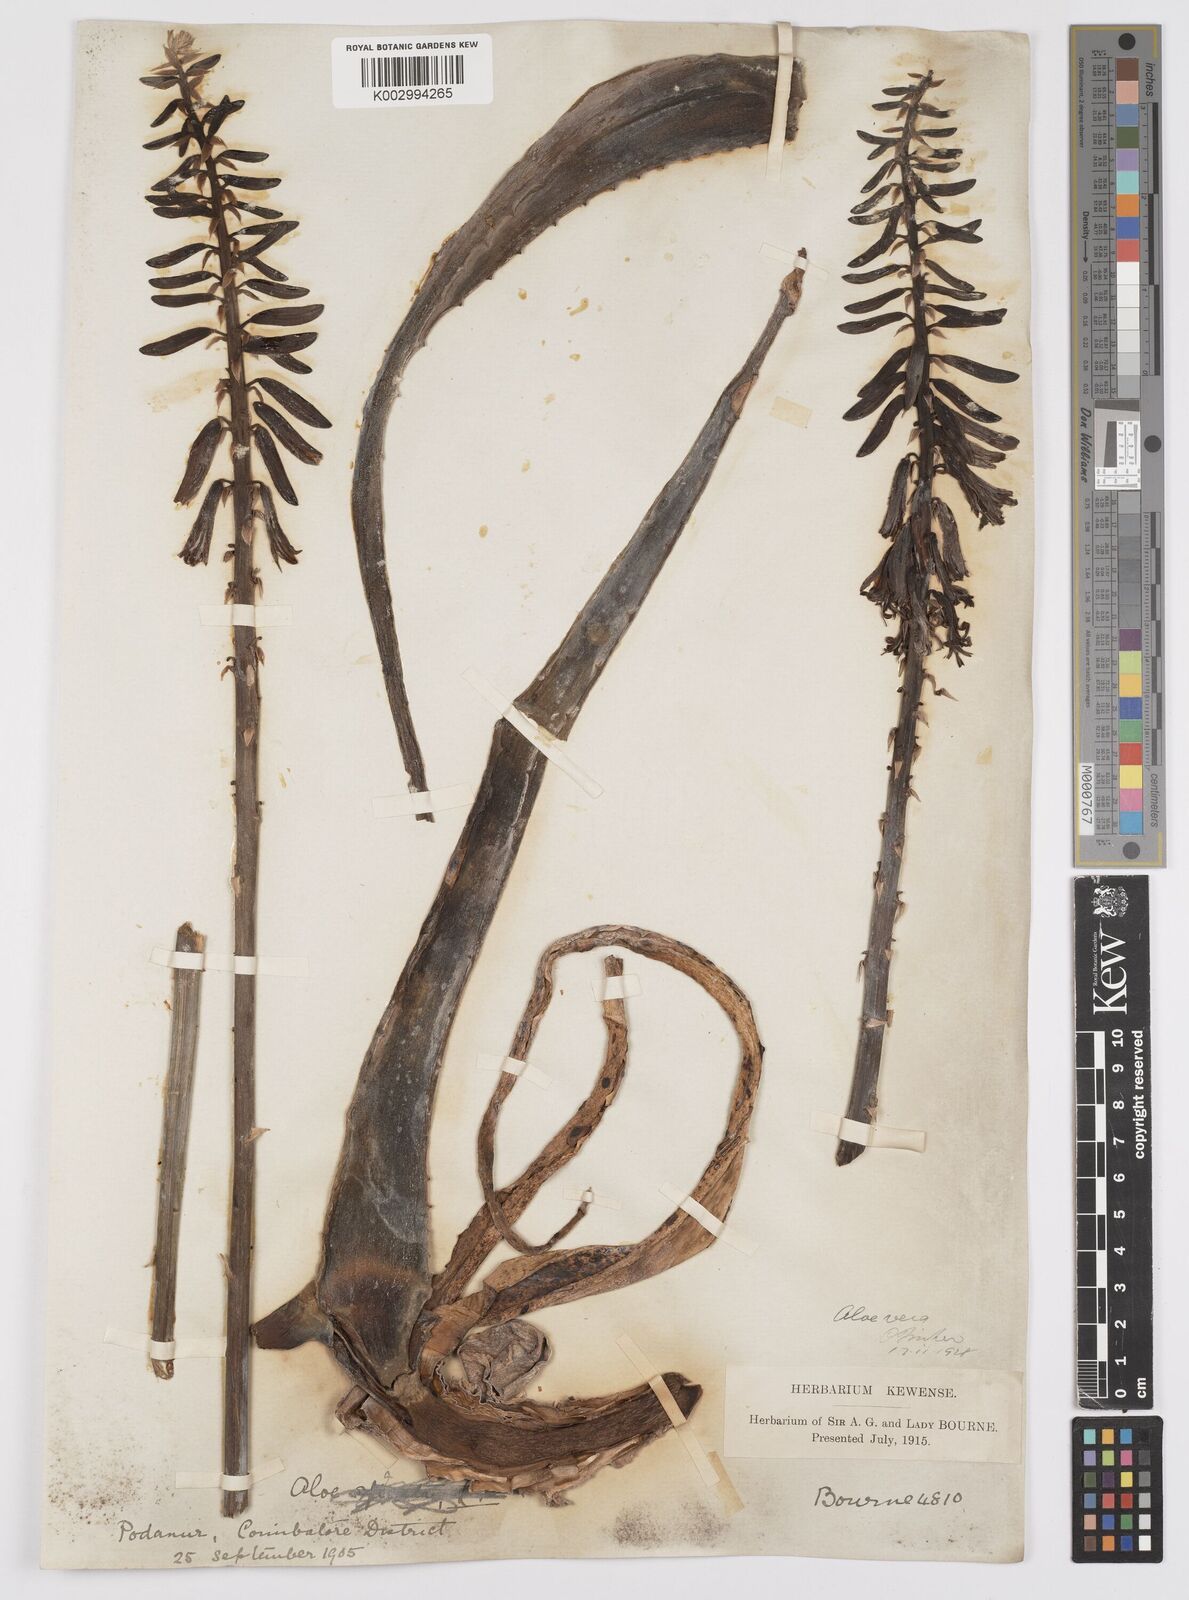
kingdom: Plantae
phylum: Tracheophyta
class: Liliopsida
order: Asparagales
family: Asphodelaceae
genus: Aloe
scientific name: Aloe vera
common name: Barbados aloe
